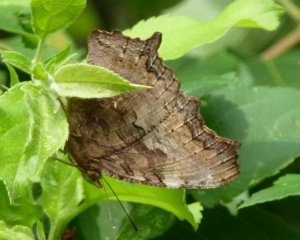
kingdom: Animalia
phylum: Arthropoda
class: Insecta
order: Lepidoptera
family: Nymphalidae
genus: Polygonia
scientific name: Polygonia vaualbum
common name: Compton Tortoiseshell
